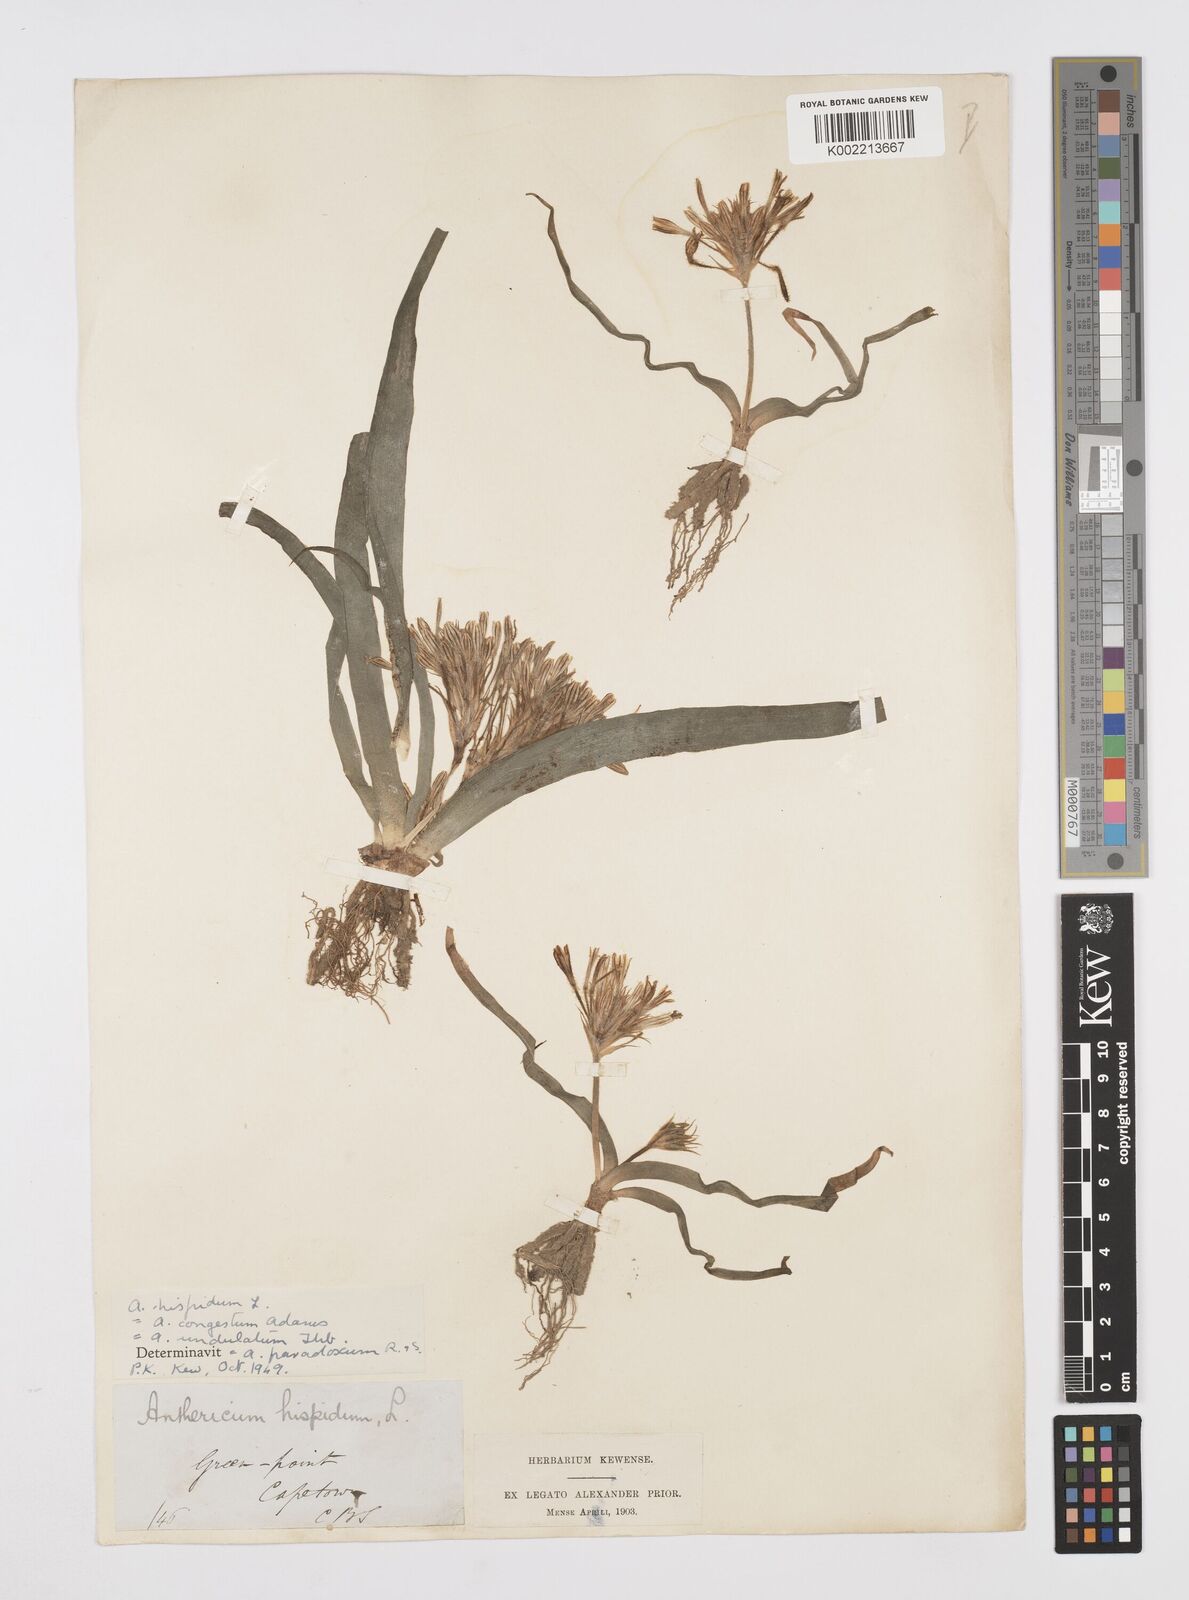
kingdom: Plantae
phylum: Tracheophyta
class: Liliopsida
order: Asparagales
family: Asphodelaceae
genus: Trachyandra
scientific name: Trachyandra hispida
